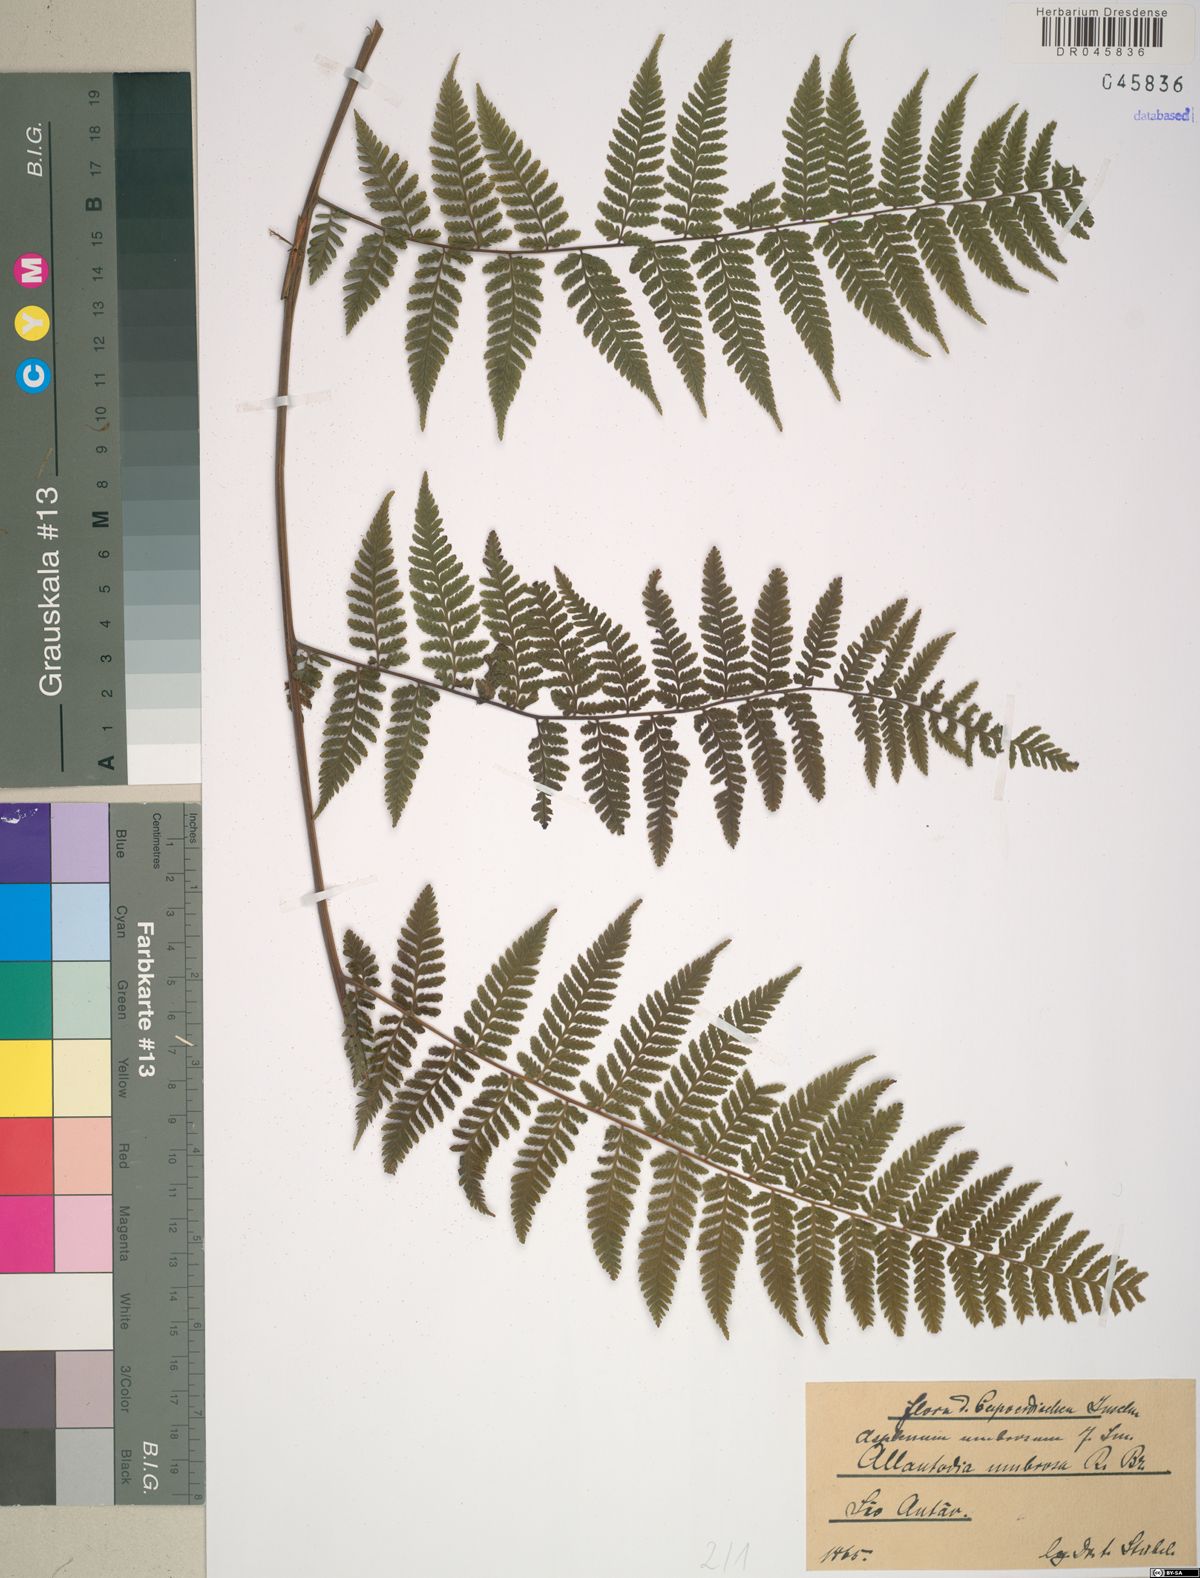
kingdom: Plantae
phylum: Tracheophyta
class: Polypodiopsida
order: Polypodiales
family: Athyriaceae
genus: Diplazium
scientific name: Diplazium caudatum
